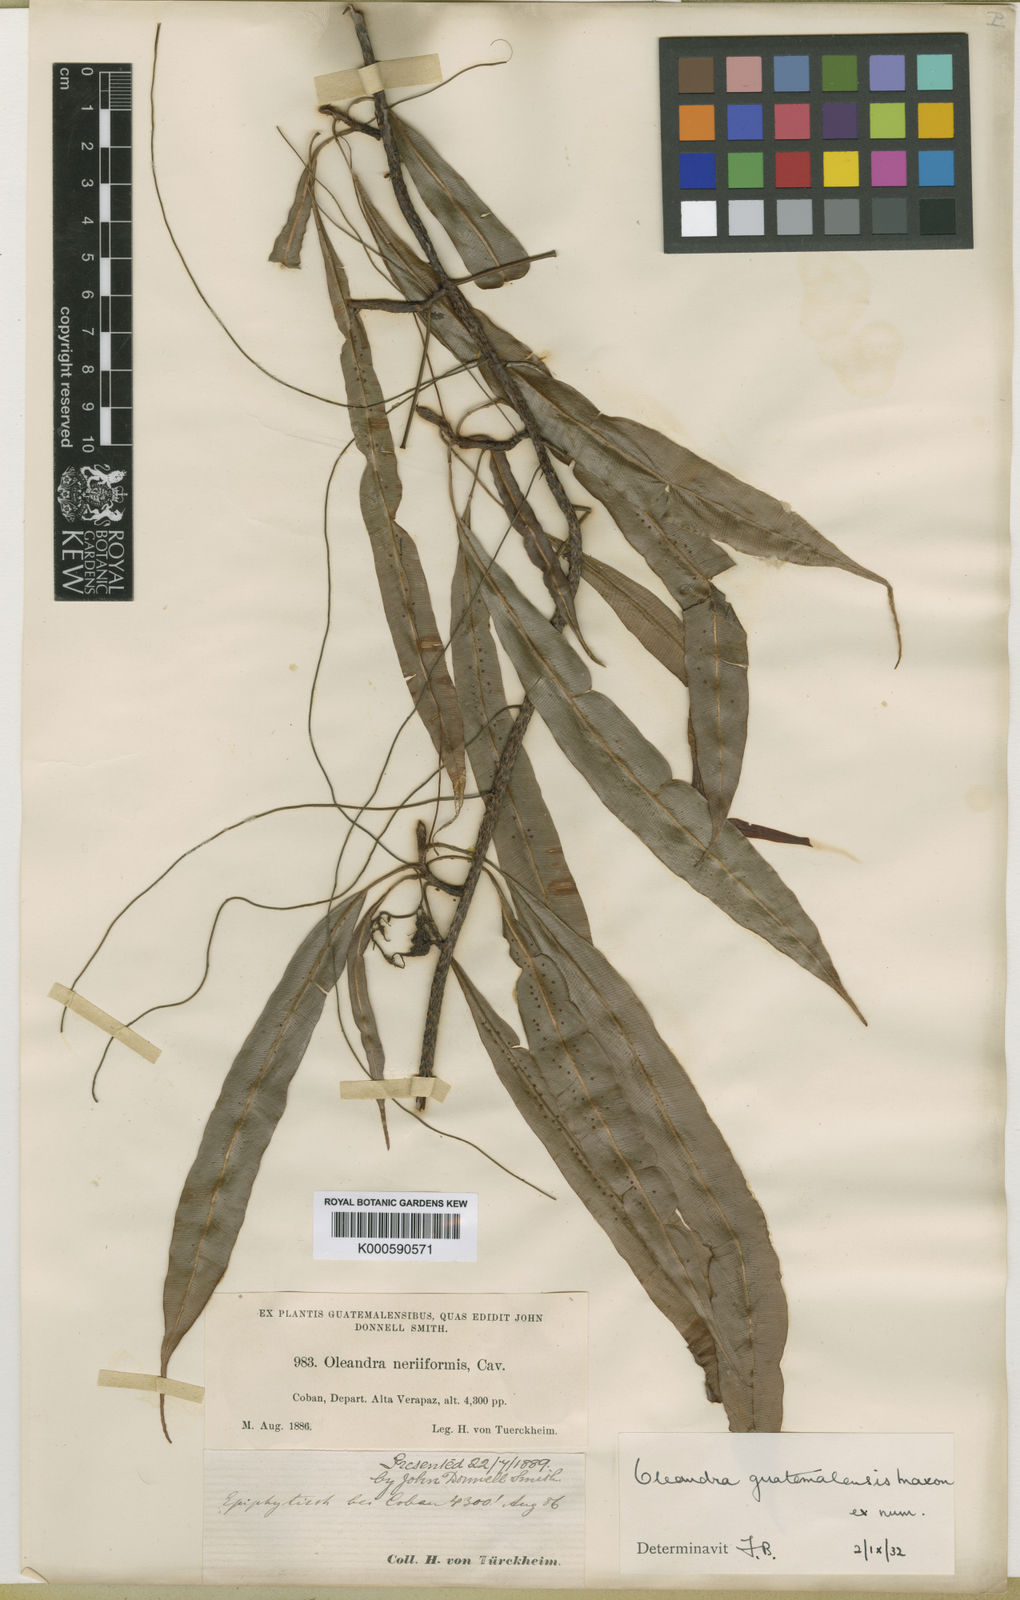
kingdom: Plantae
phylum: Tracheophyta
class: Polypodiopsida
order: Polypodiales
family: Oleandraceae
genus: Oleandra
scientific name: Oleandra guatemalensis
